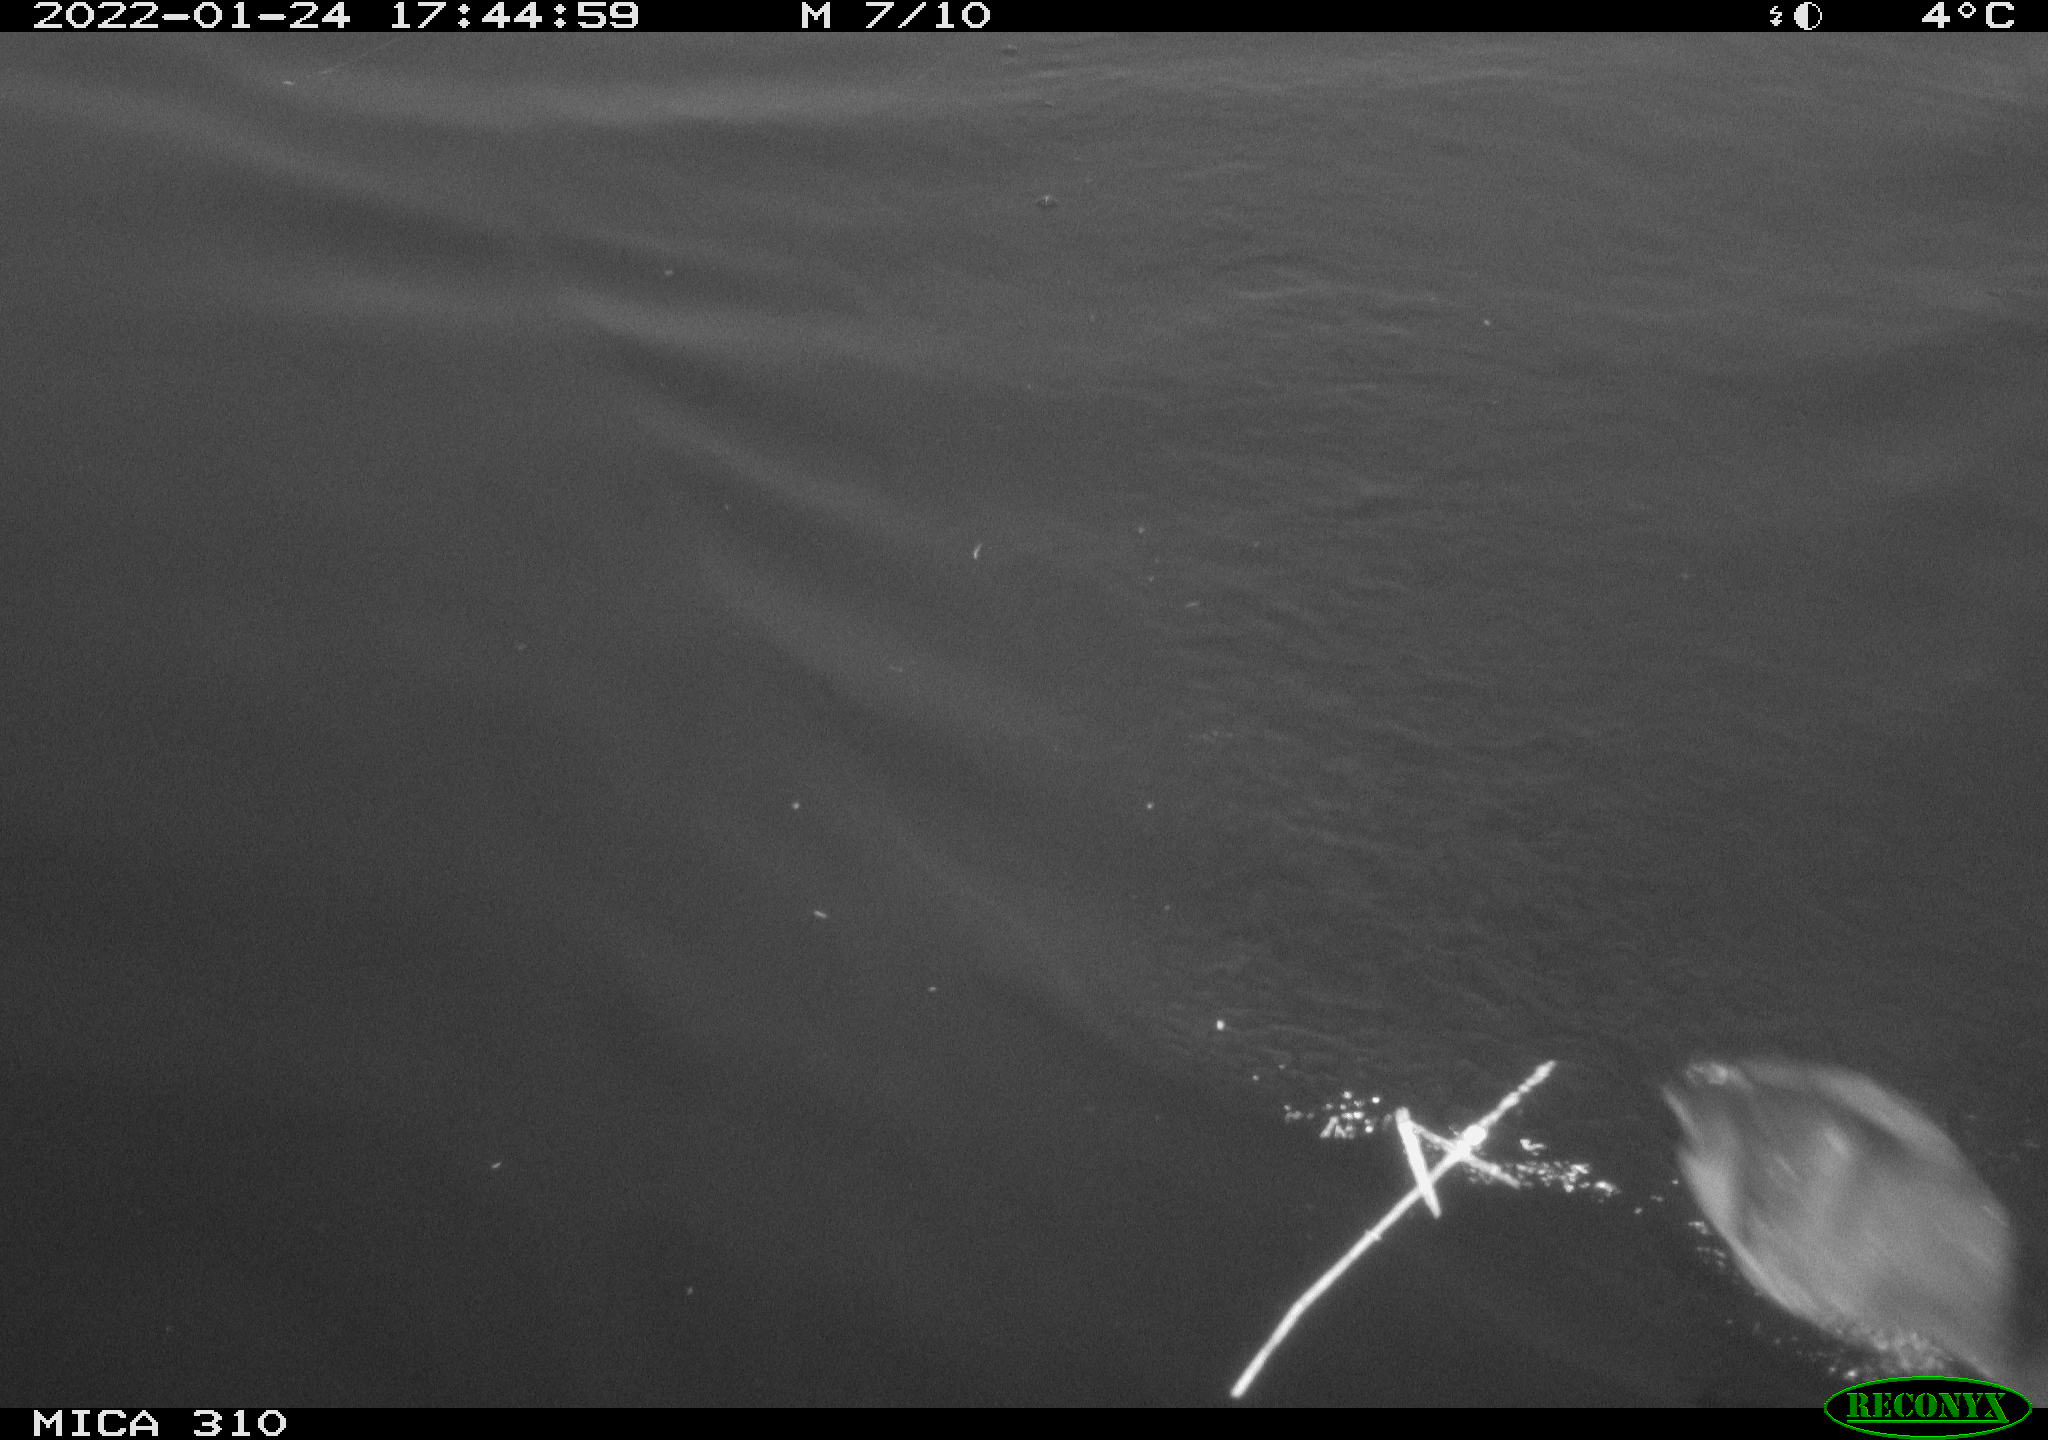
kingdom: Animalia
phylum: Chordata
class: Aves
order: Anseriformes
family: Anatidae
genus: Anas
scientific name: Anas
